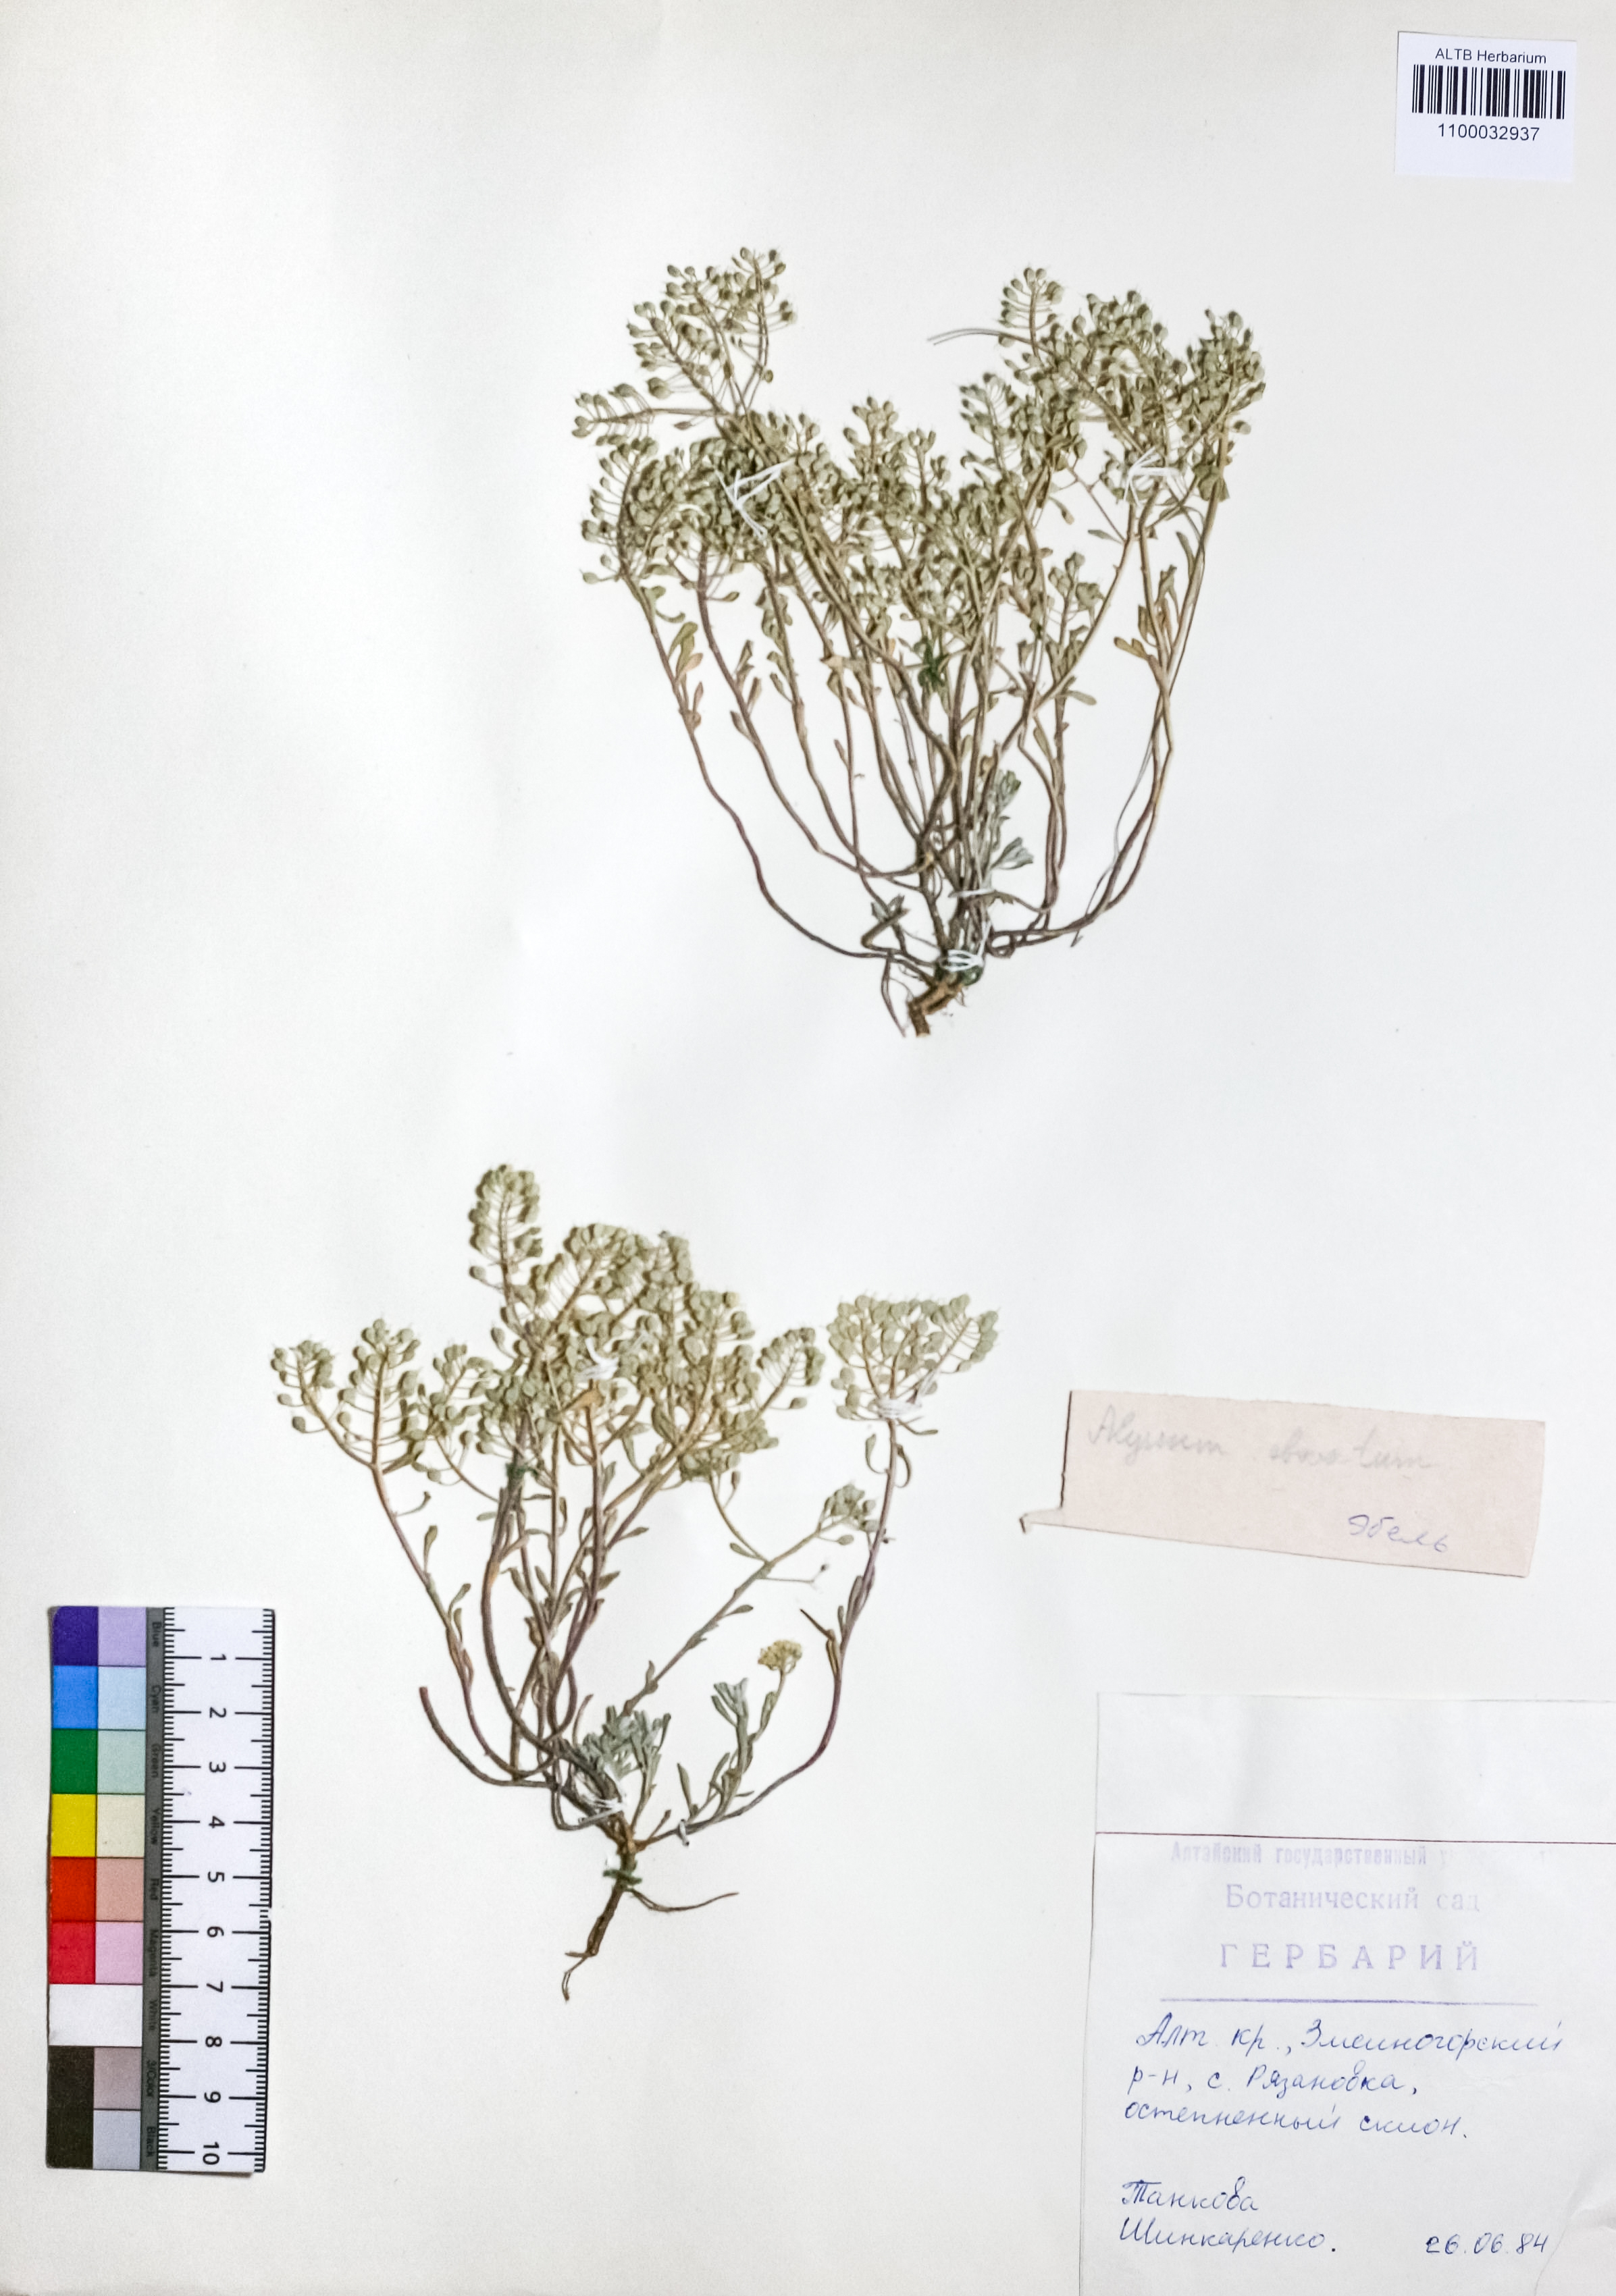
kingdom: Plantae
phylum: Tracheophyta
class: Magnoliopsida
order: Brassicales
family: Brassicaceae
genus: Odontarrhena
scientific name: Odontarrhena obovata
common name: American alyssum
